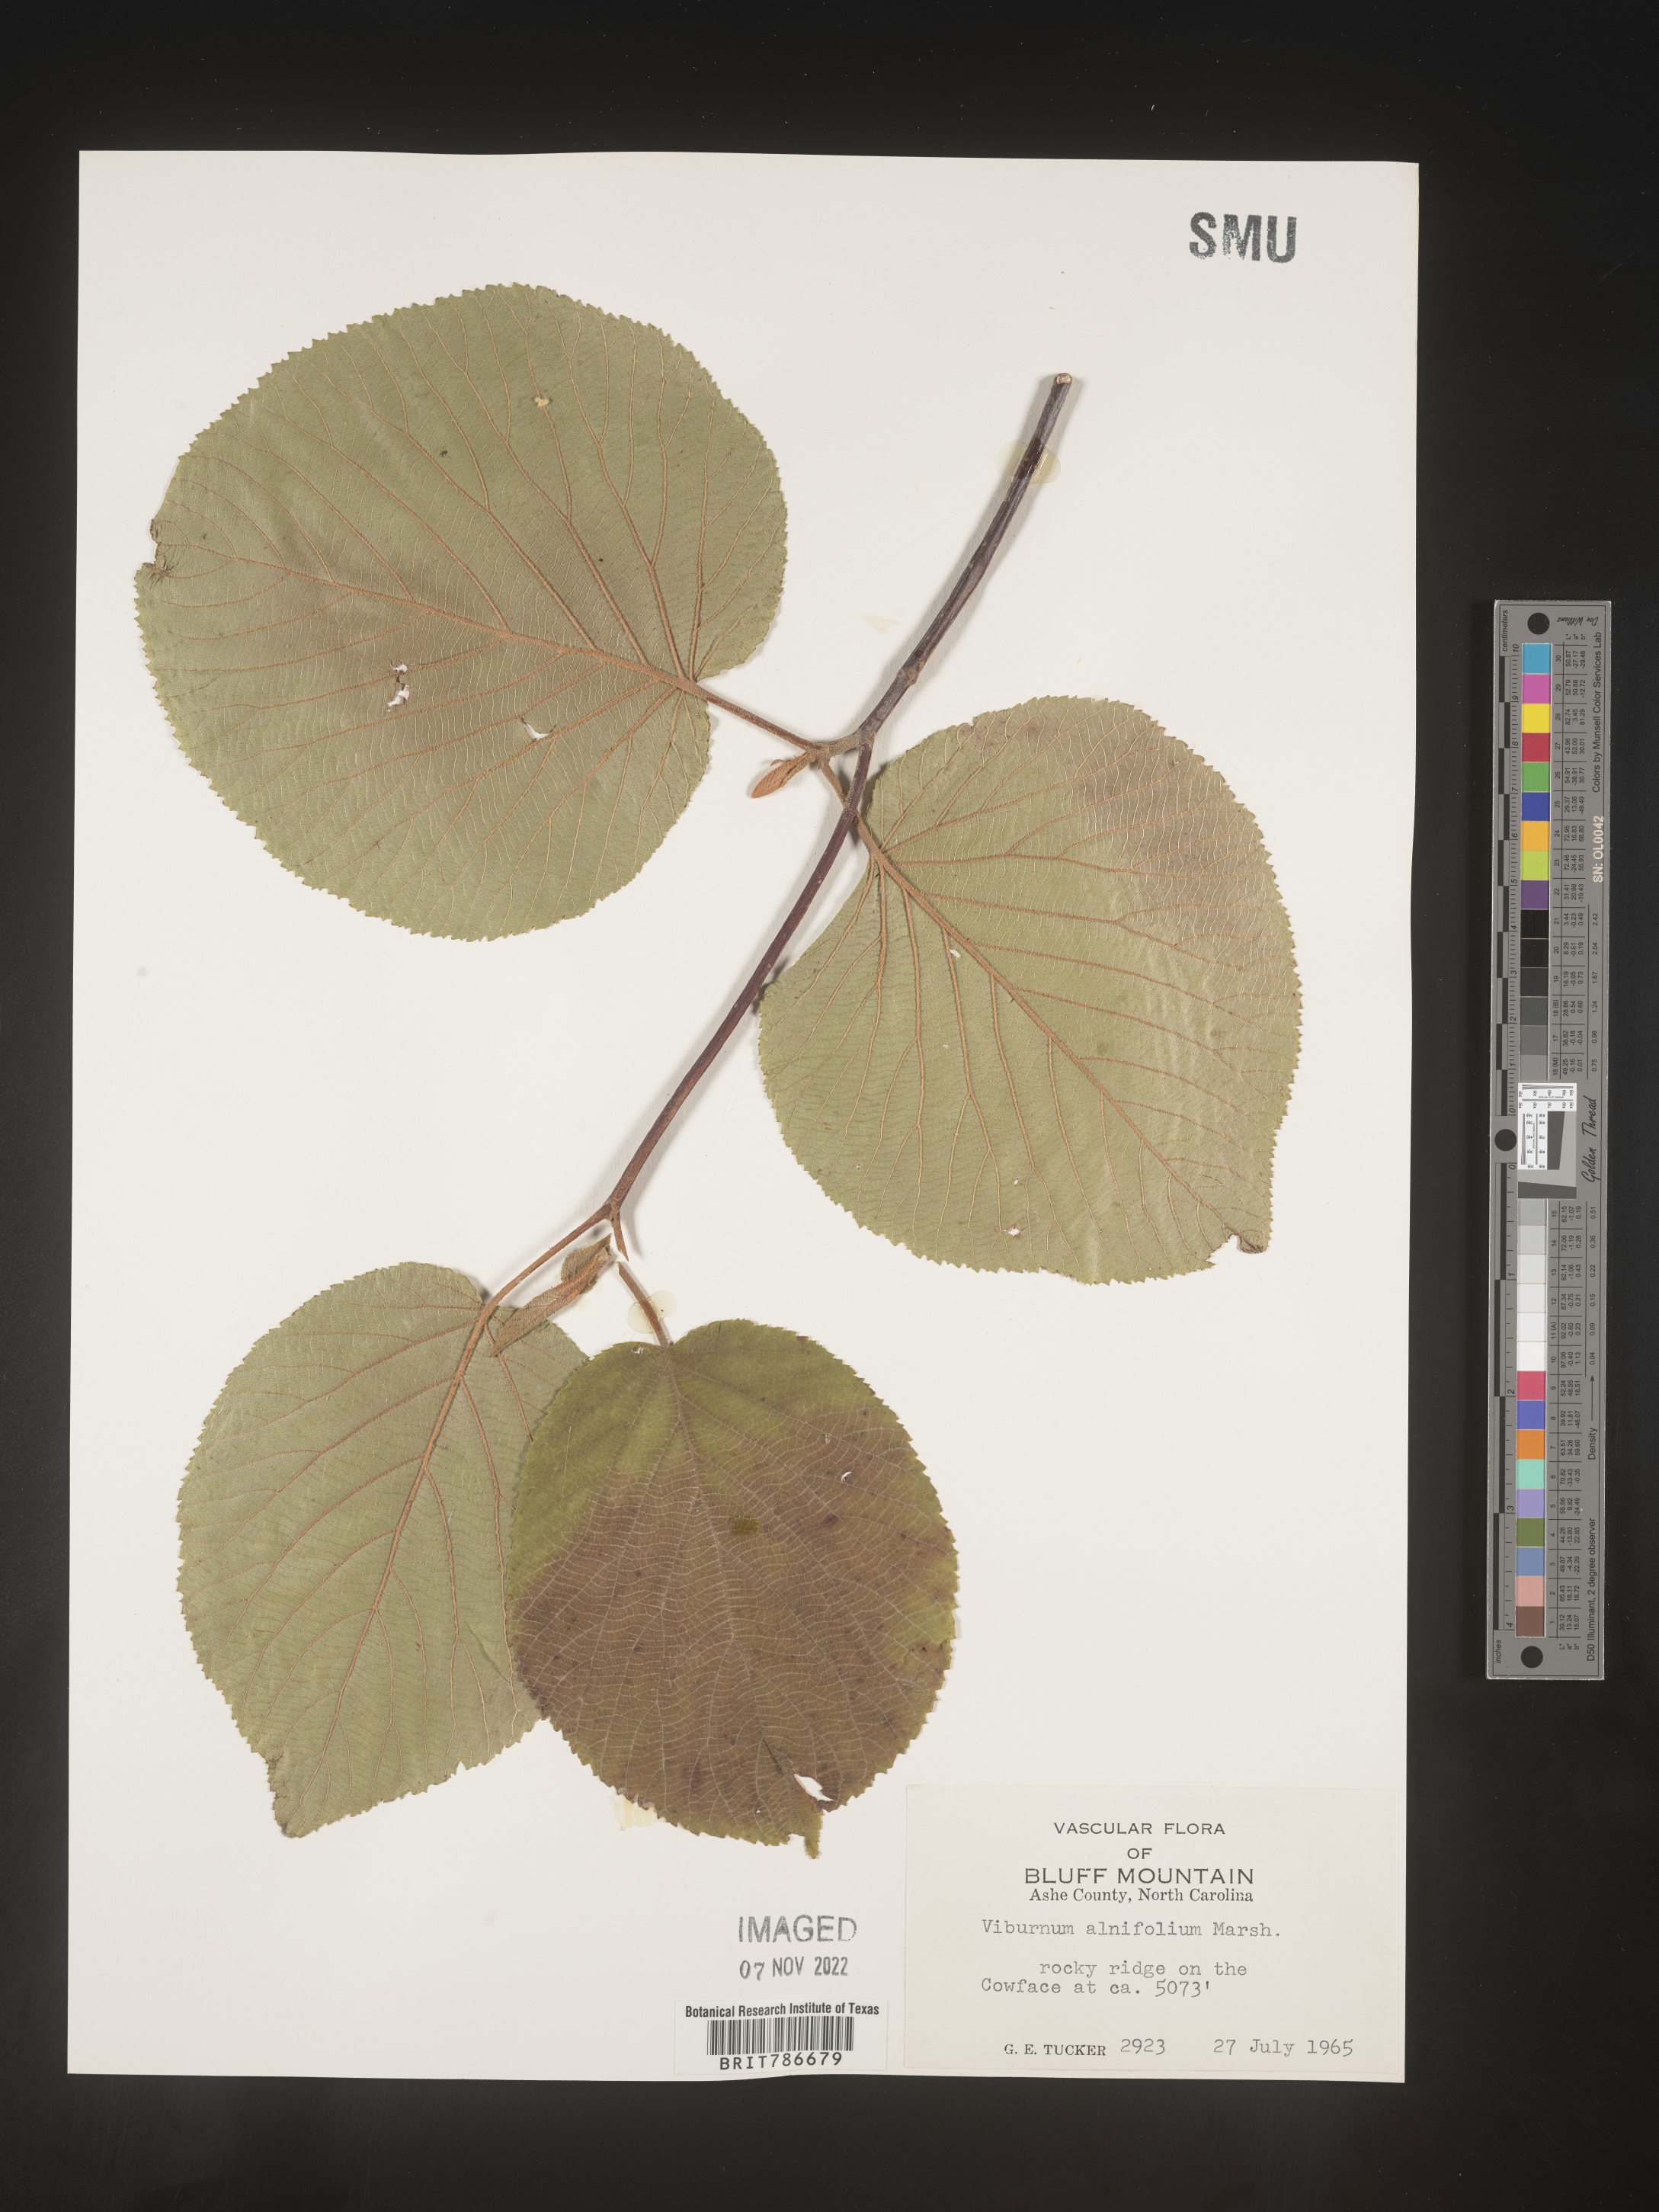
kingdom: Plantae
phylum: Tracheophyta
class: Magnoliopsida
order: Dipsacales
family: Viburnaceae
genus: Viburnum
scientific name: Viburnum lantanoides
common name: Hobblebush
